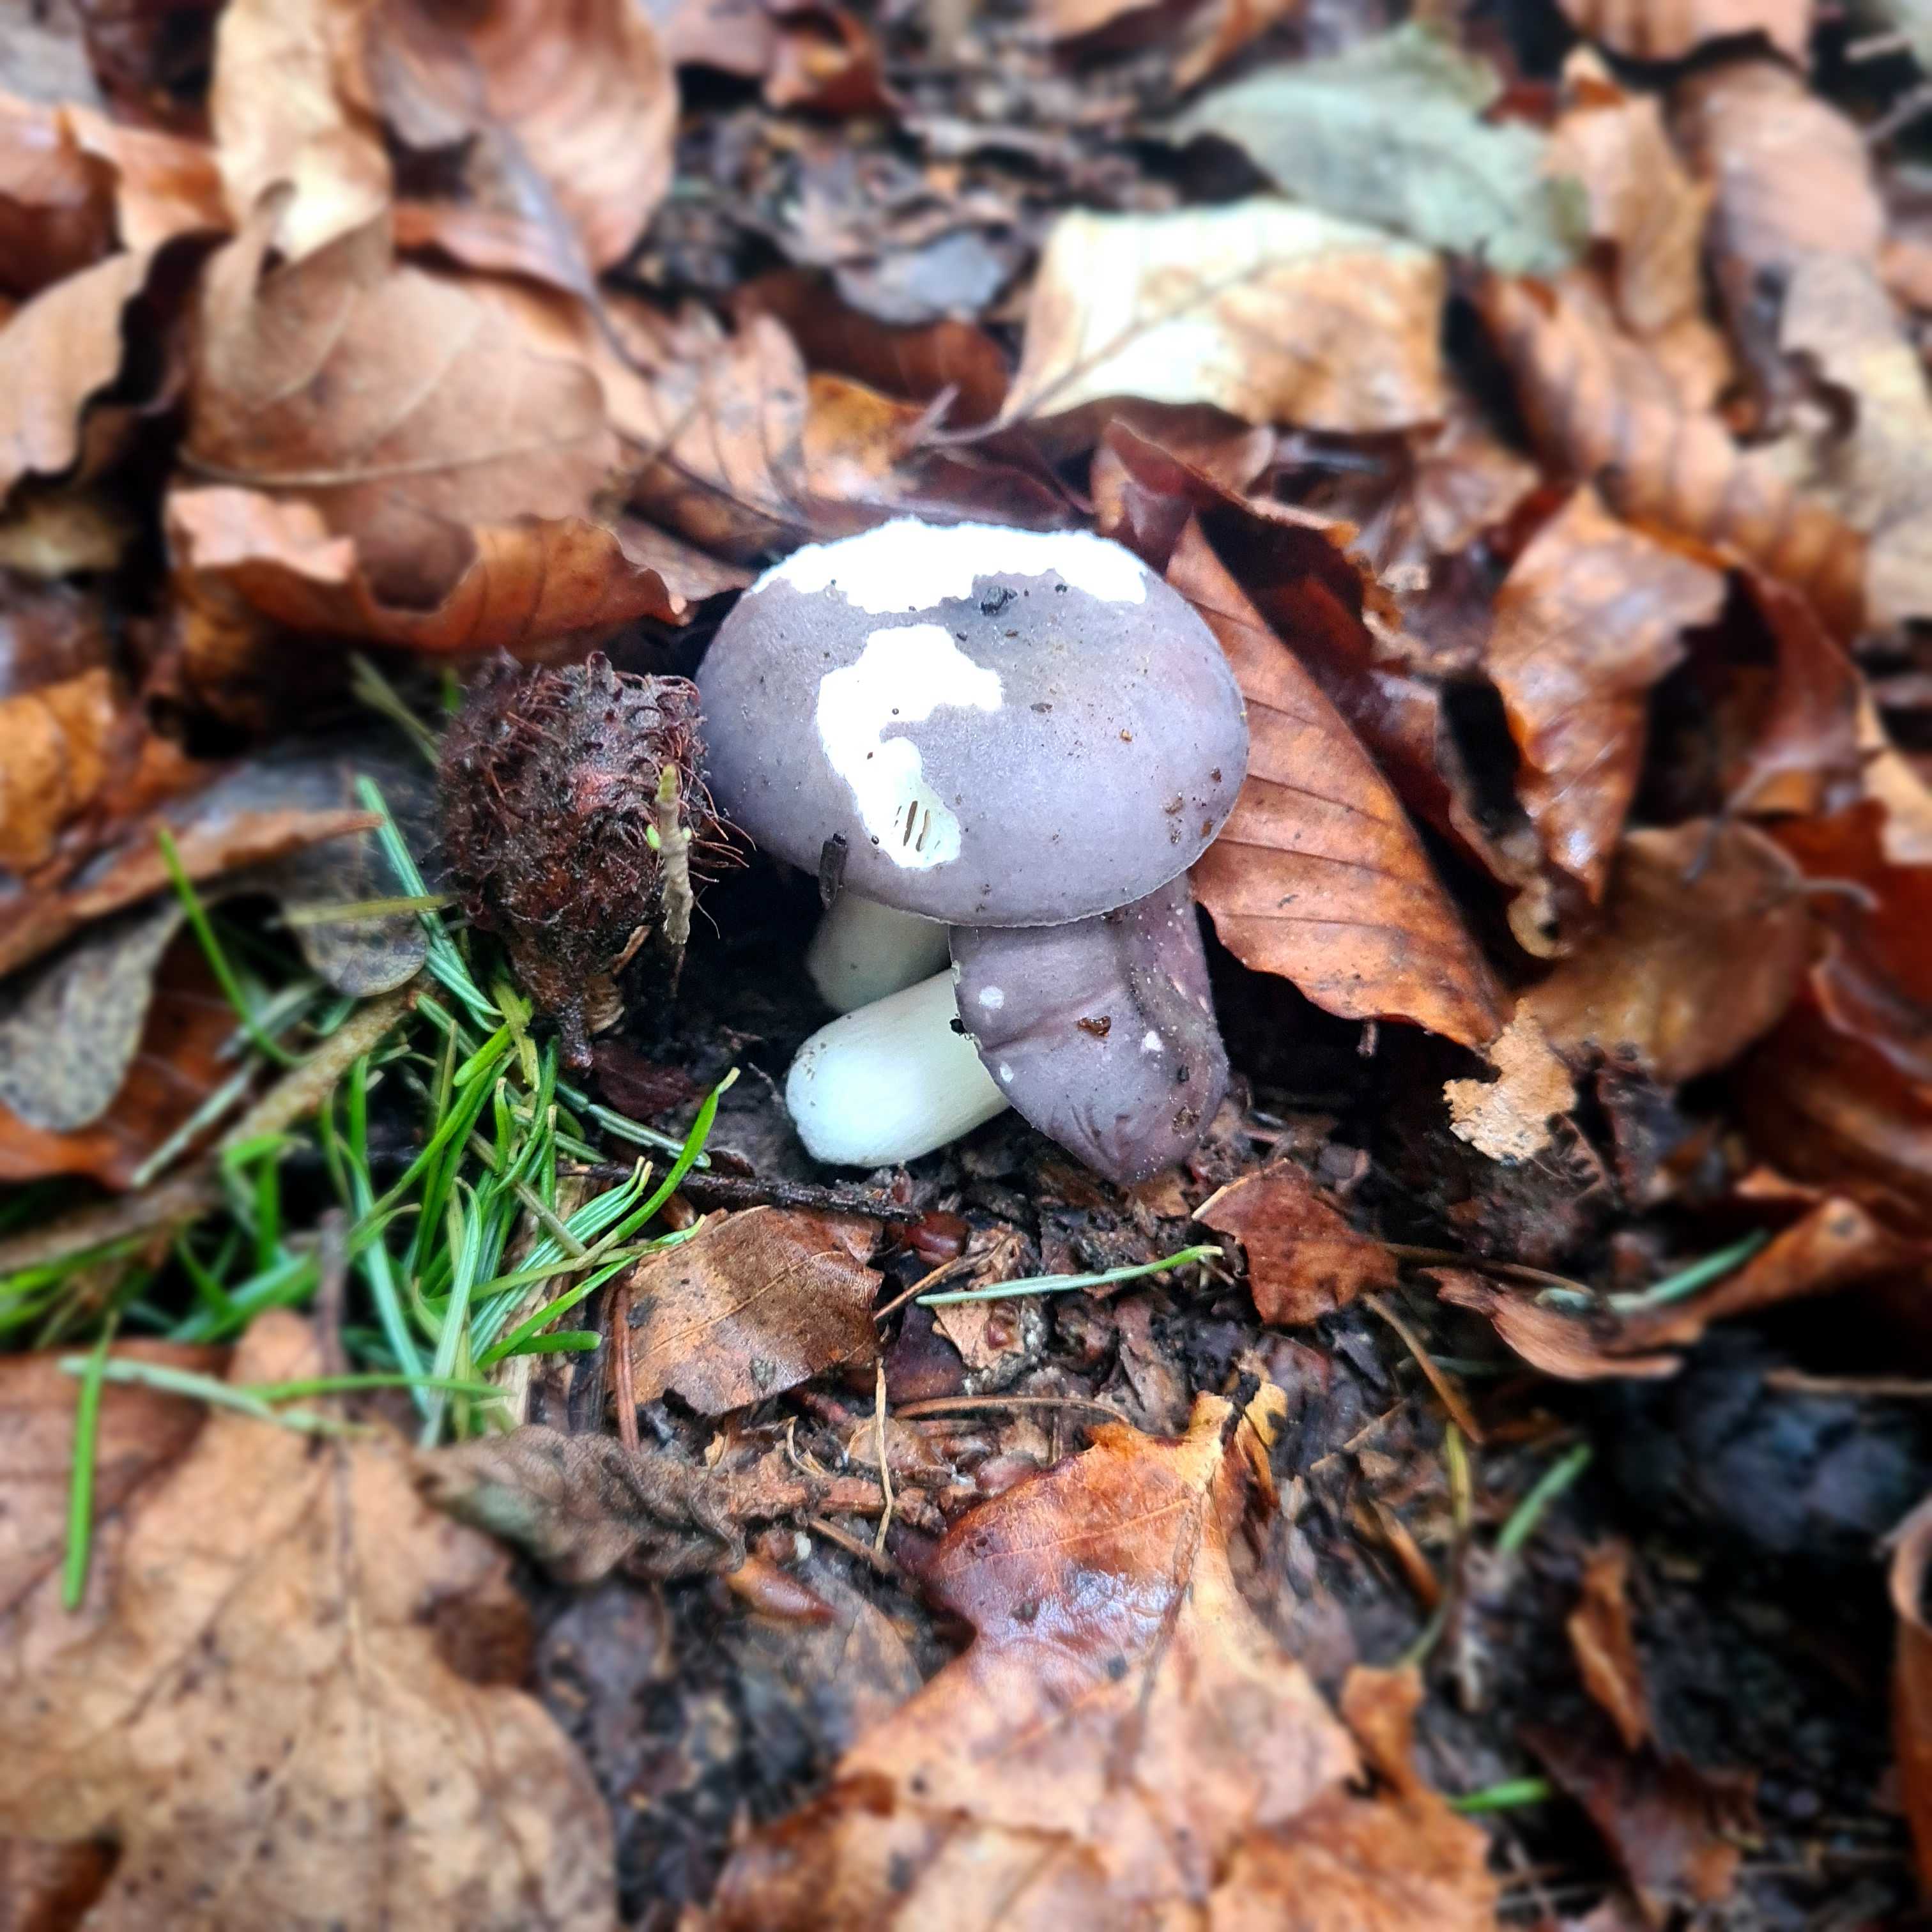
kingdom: Fungi
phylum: Basidiomycota
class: Agaricomycetes
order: Russulales
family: Russulaceae
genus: Russula
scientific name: Russula
